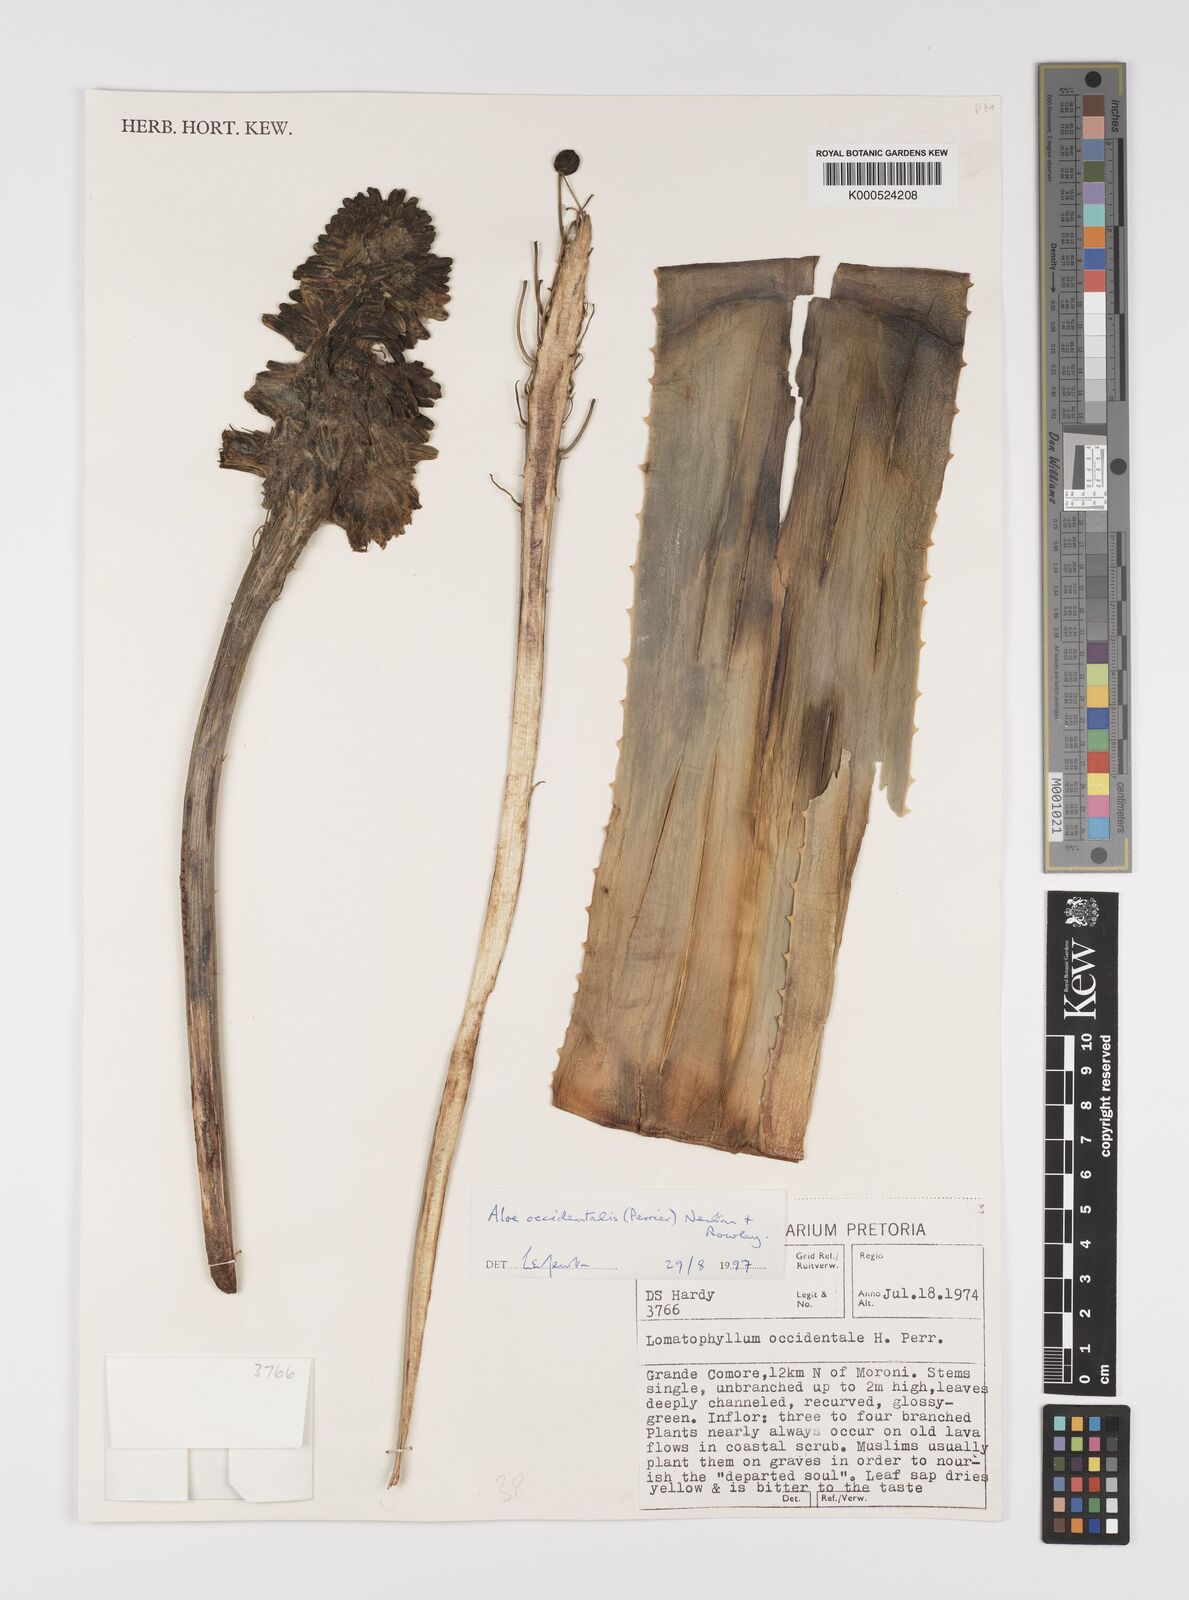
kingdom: Plantae
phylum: Tracheophyta
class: Liliopsida
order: Asparagales
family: Asphodelaceae
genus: Aloe
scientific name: Aloe occidentalis
